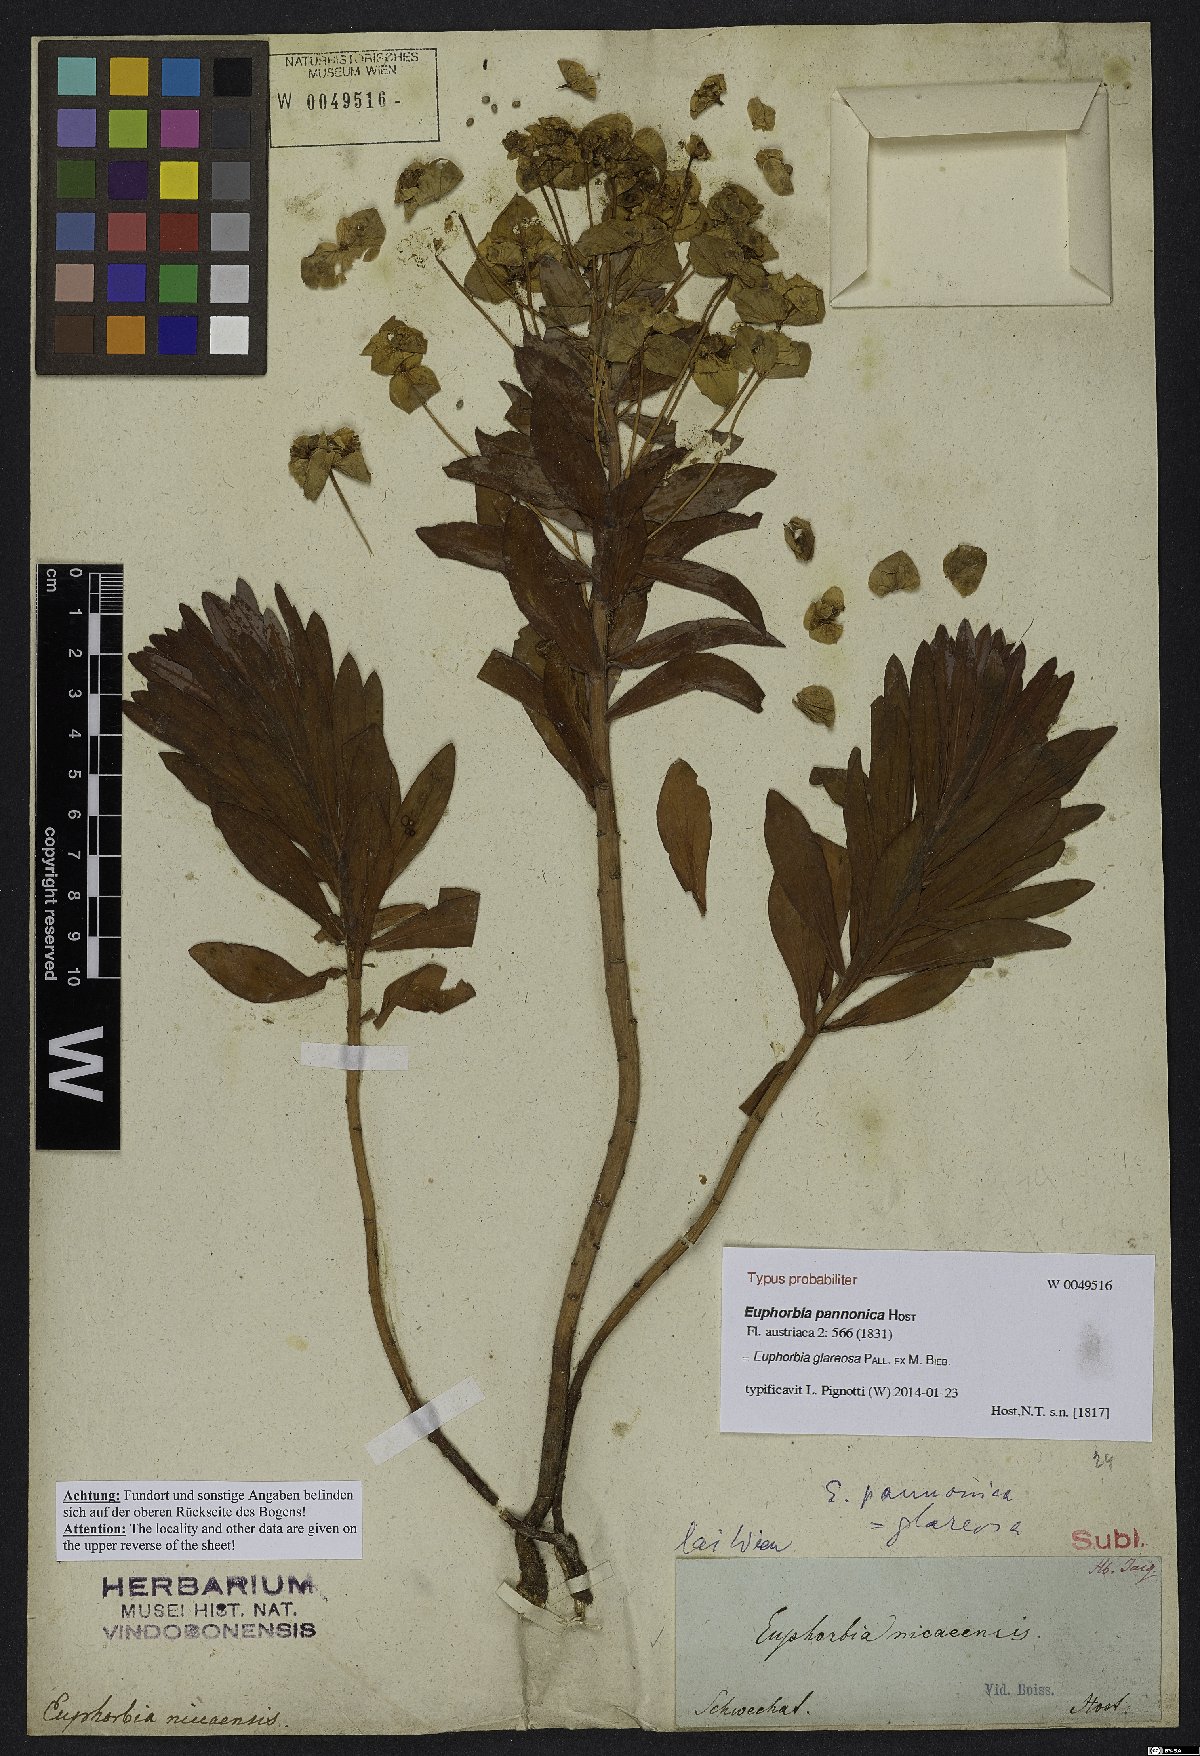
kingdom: Plantae
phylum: Tracheophyta
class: Magnoliopsida
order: Malpighiales
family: Euphorbiaceae
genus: Euphorbia
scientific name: Euphorbia glareosa
